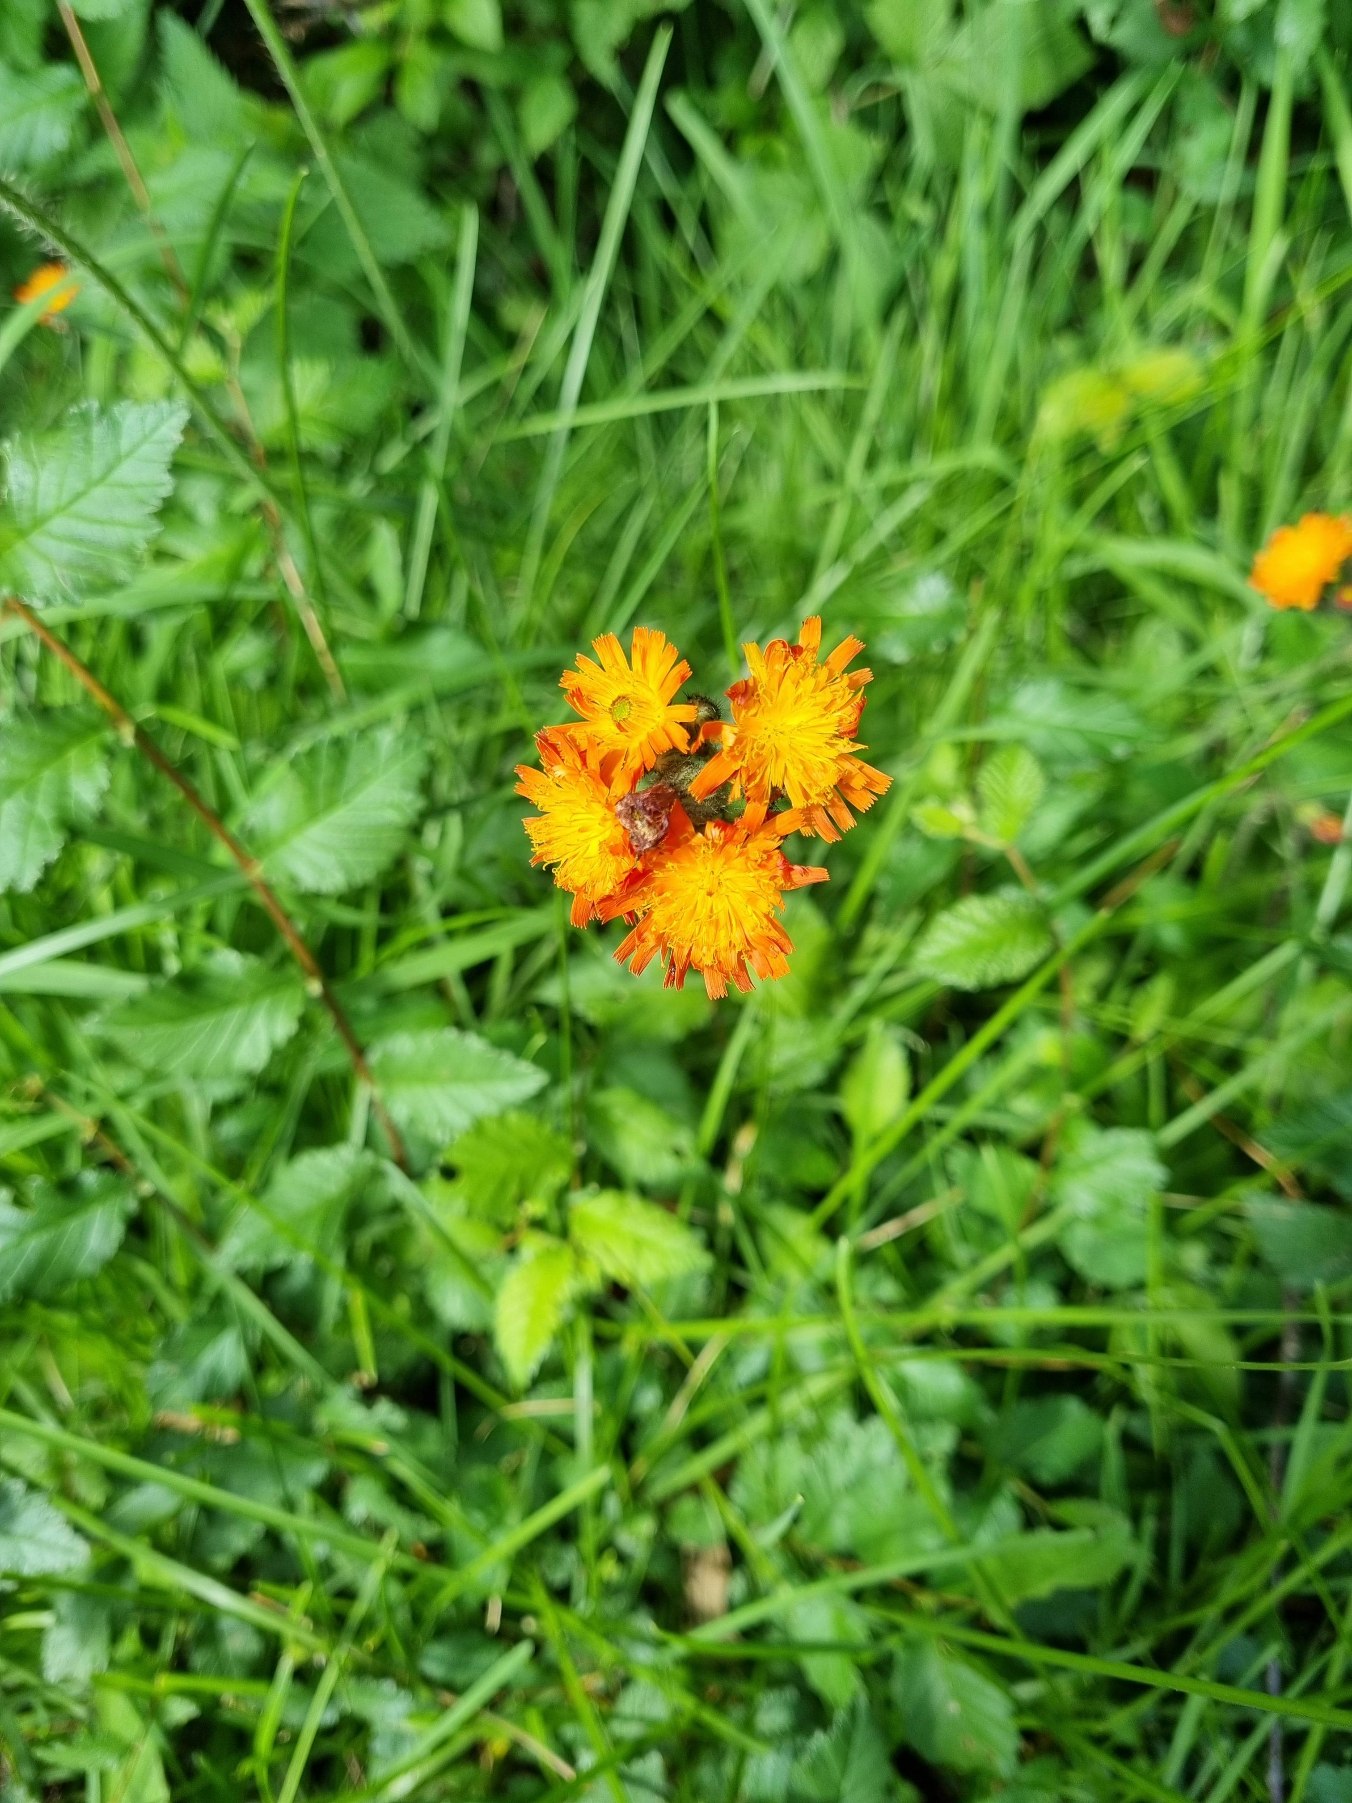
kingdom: Plantae
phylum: Tracheophyta
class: Magnoliopsida
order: Asterales
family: Asteraceae
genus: Pilosella
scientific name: Pilosella aurantiaca
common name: Pomerans-høgeurt
